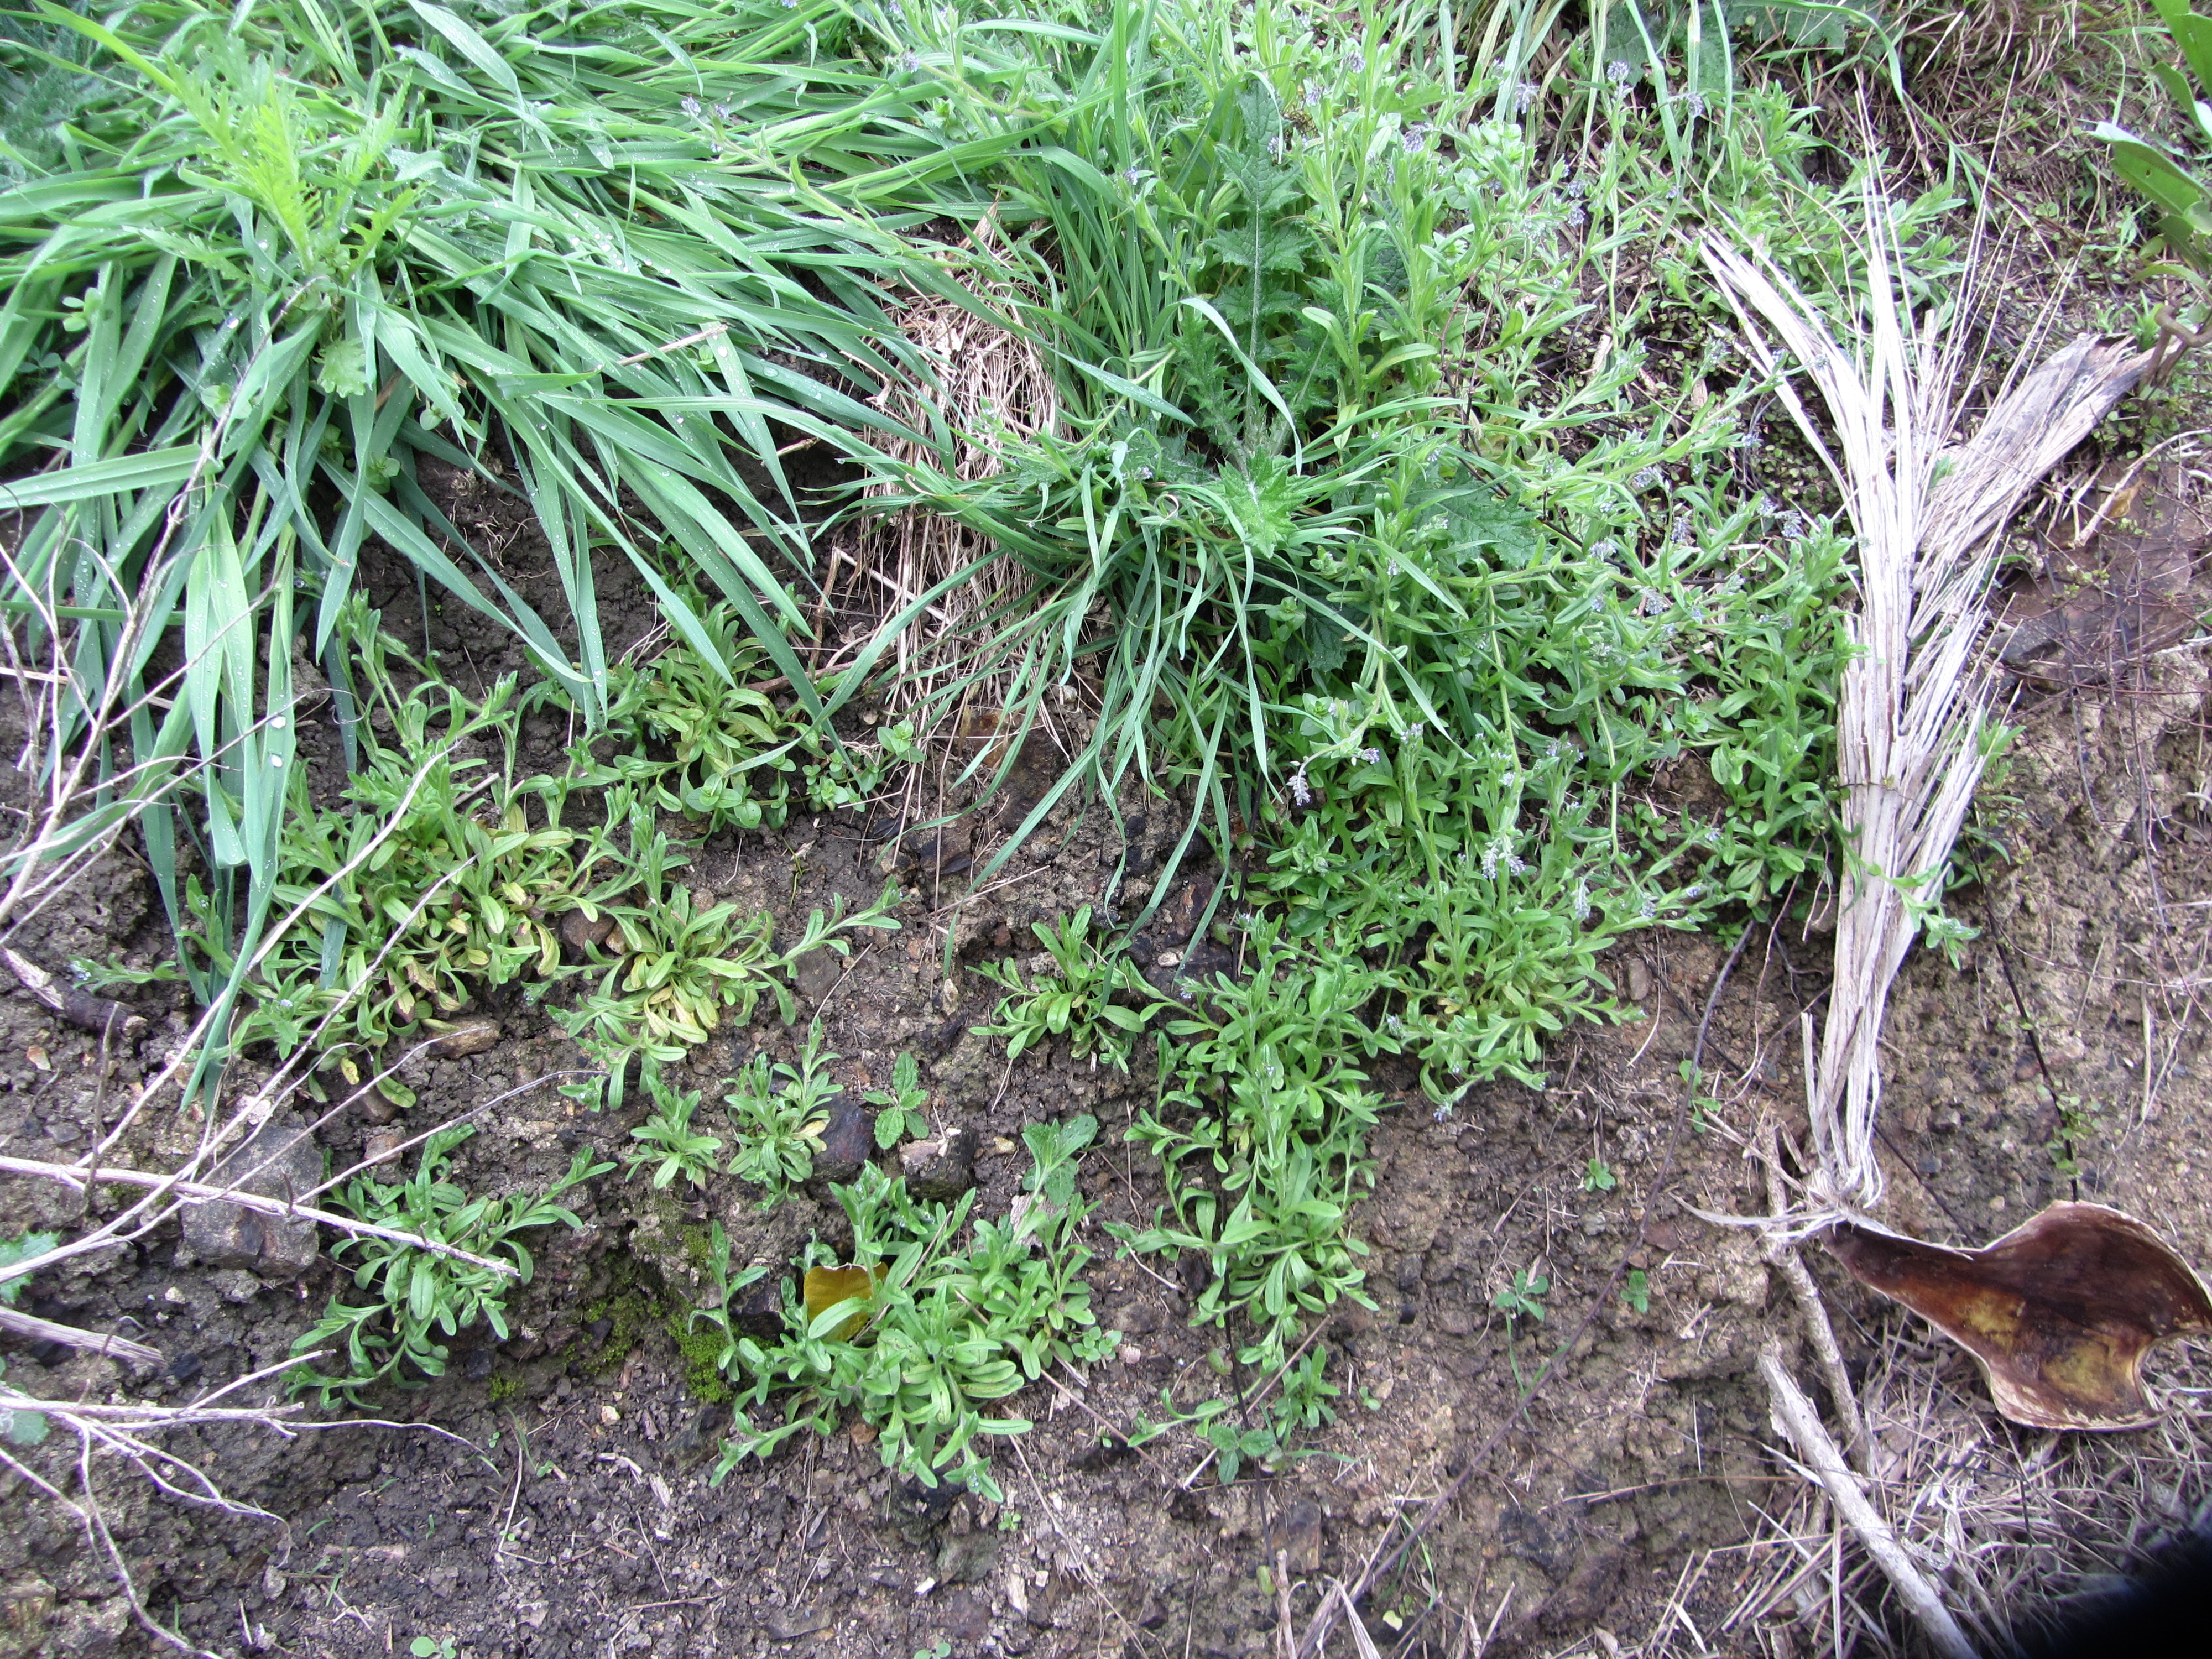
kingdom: Plantae
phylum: Tracheophyta
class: Magnoliopsida
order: Boraginales
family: Boraginaceae
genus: Myosotis
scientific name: Myosotis discolor
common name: Changing forget-me-not
